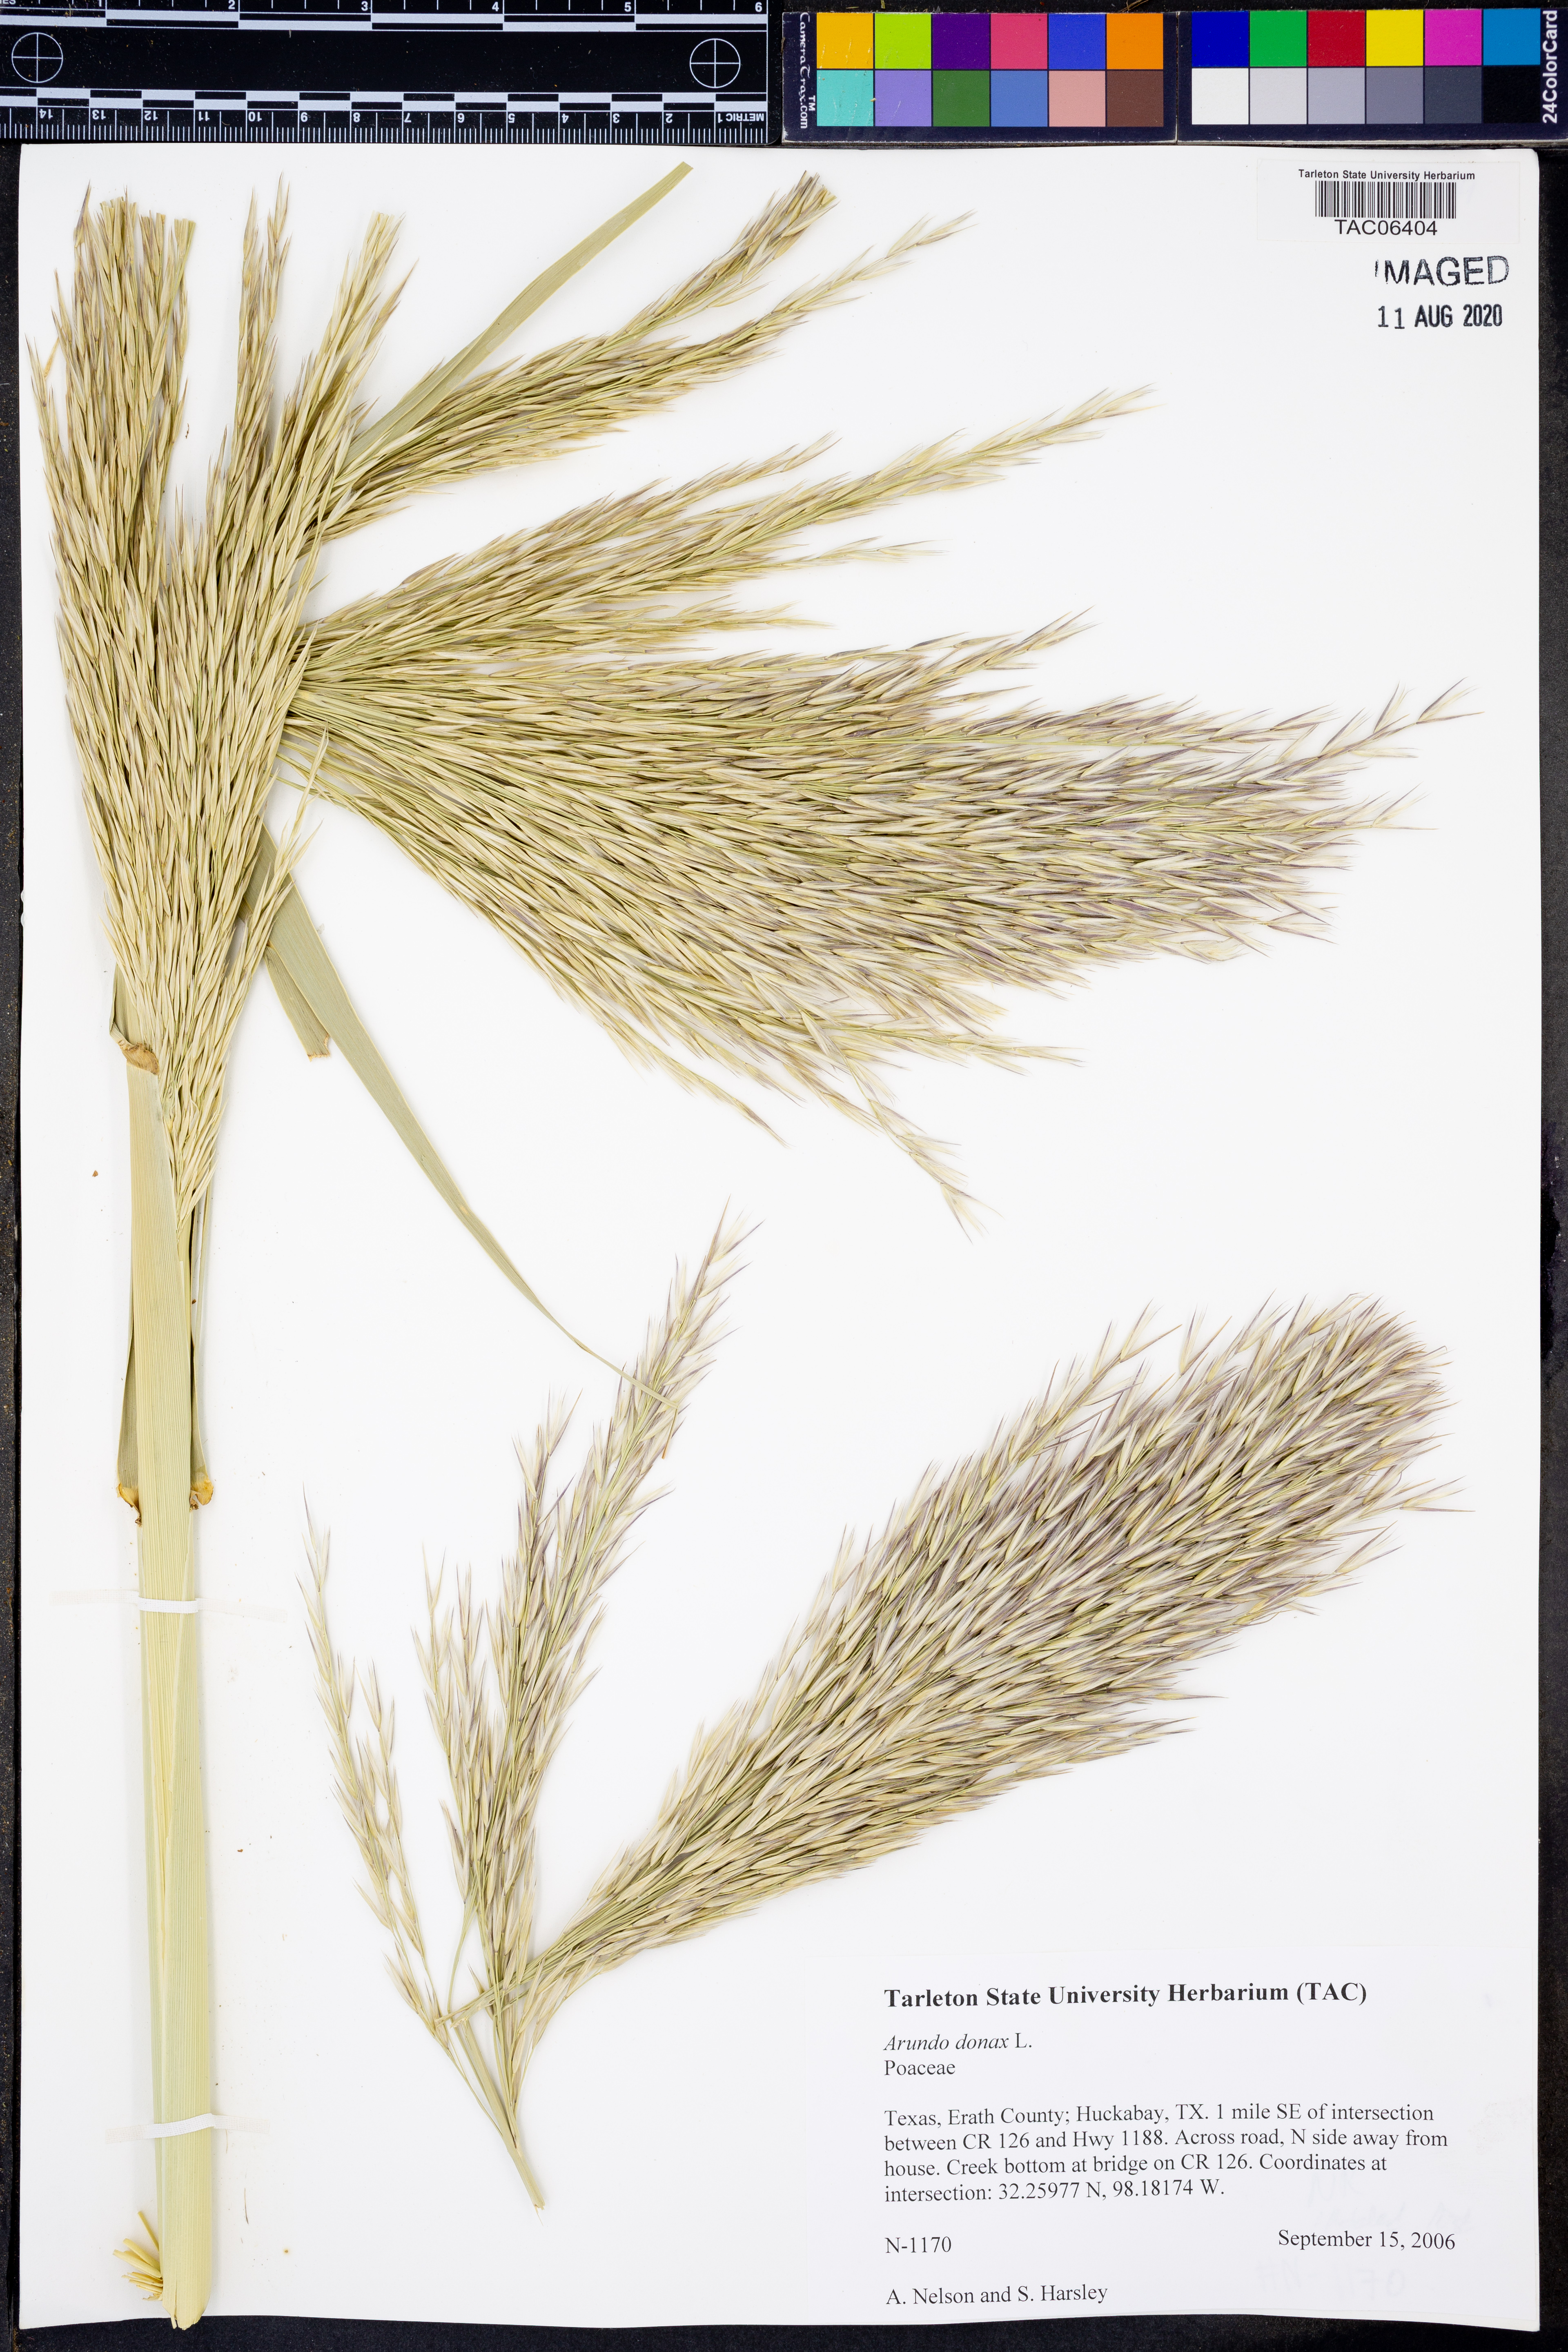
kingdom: Plantae
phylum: Tracheophyta
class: Liliopsida
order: Poales
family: Poaceae
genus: Arundo
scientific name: Arundo donax
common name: Giant reed
